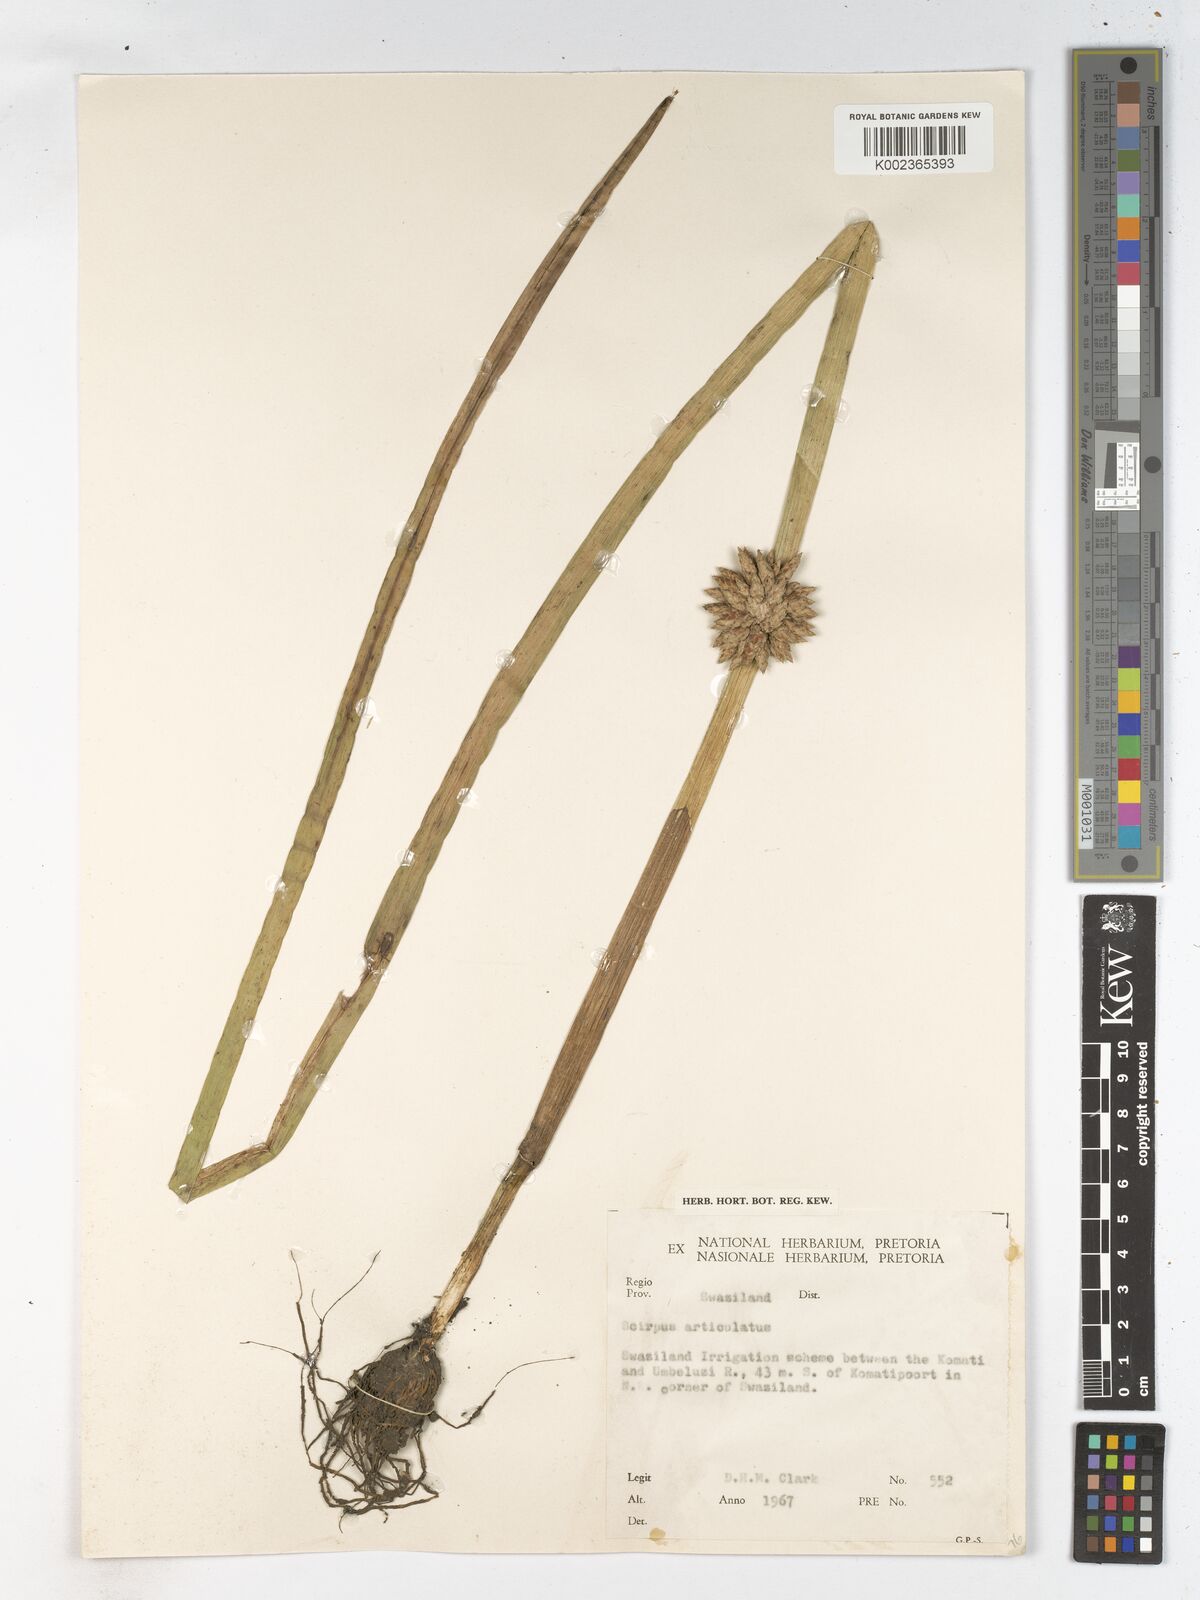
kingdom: Plantae
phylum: Tracheophyta
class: Liliopsida
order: Poales
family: Cyperaceae
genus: Schoenoplectiella
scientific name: Schoenoplectiella articulata
